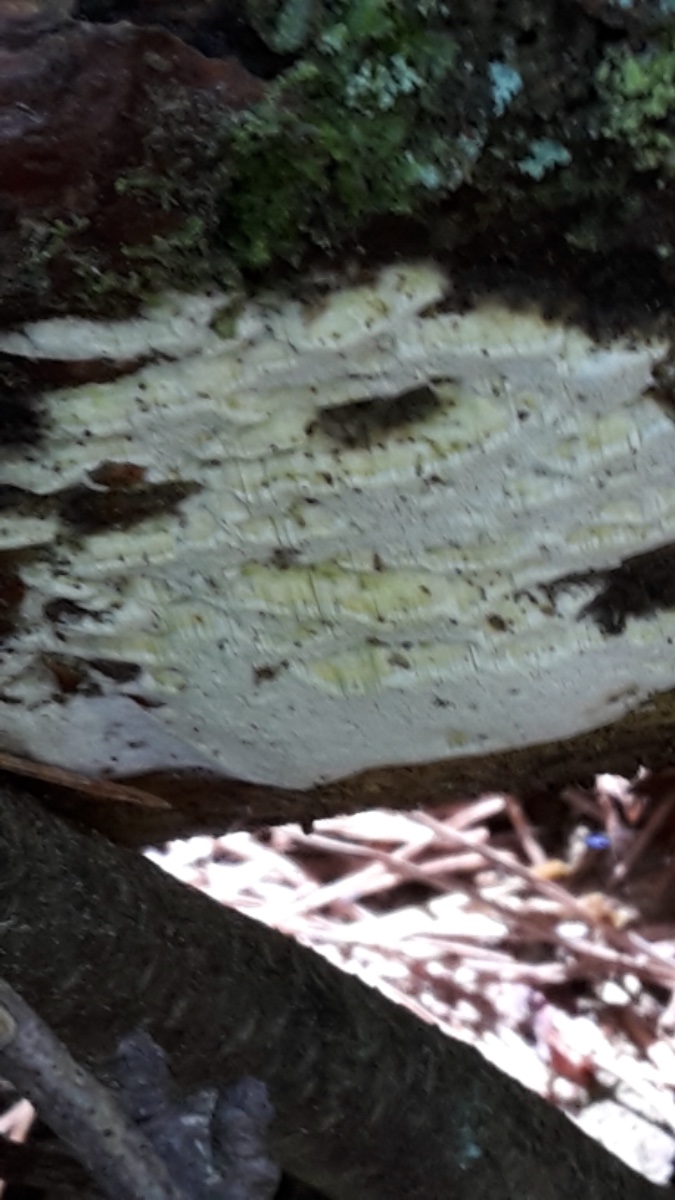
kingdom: Fungi
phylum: Basidiomycota
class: Agaricomycetes
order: Hymenochaetales
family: Rickenellaceae
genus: Sidera
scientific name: Sidera vulgaris
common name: fin flødeporesvamp
